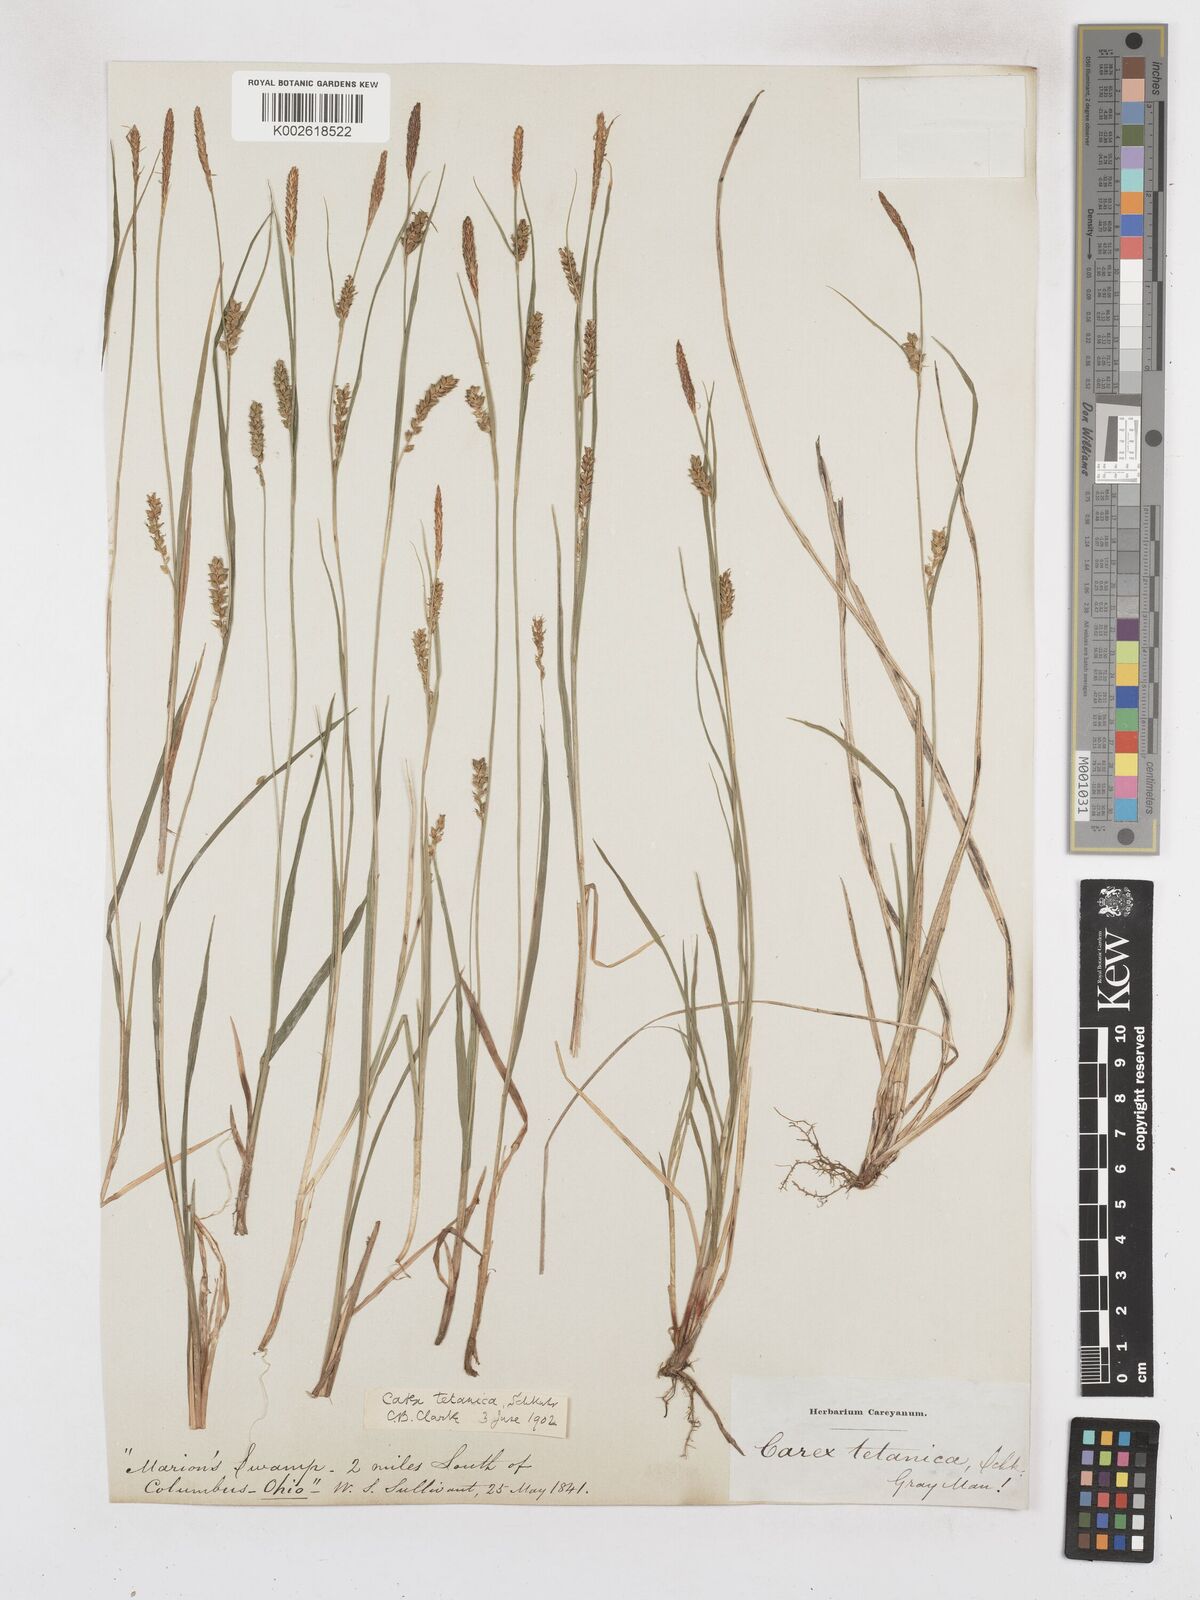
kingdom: Plantae
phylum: Tracheophyta
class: Liliopsida
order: Poales
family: Cyperaceae
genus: Carex
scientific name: Carex tetanica
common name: Rigid sedge
